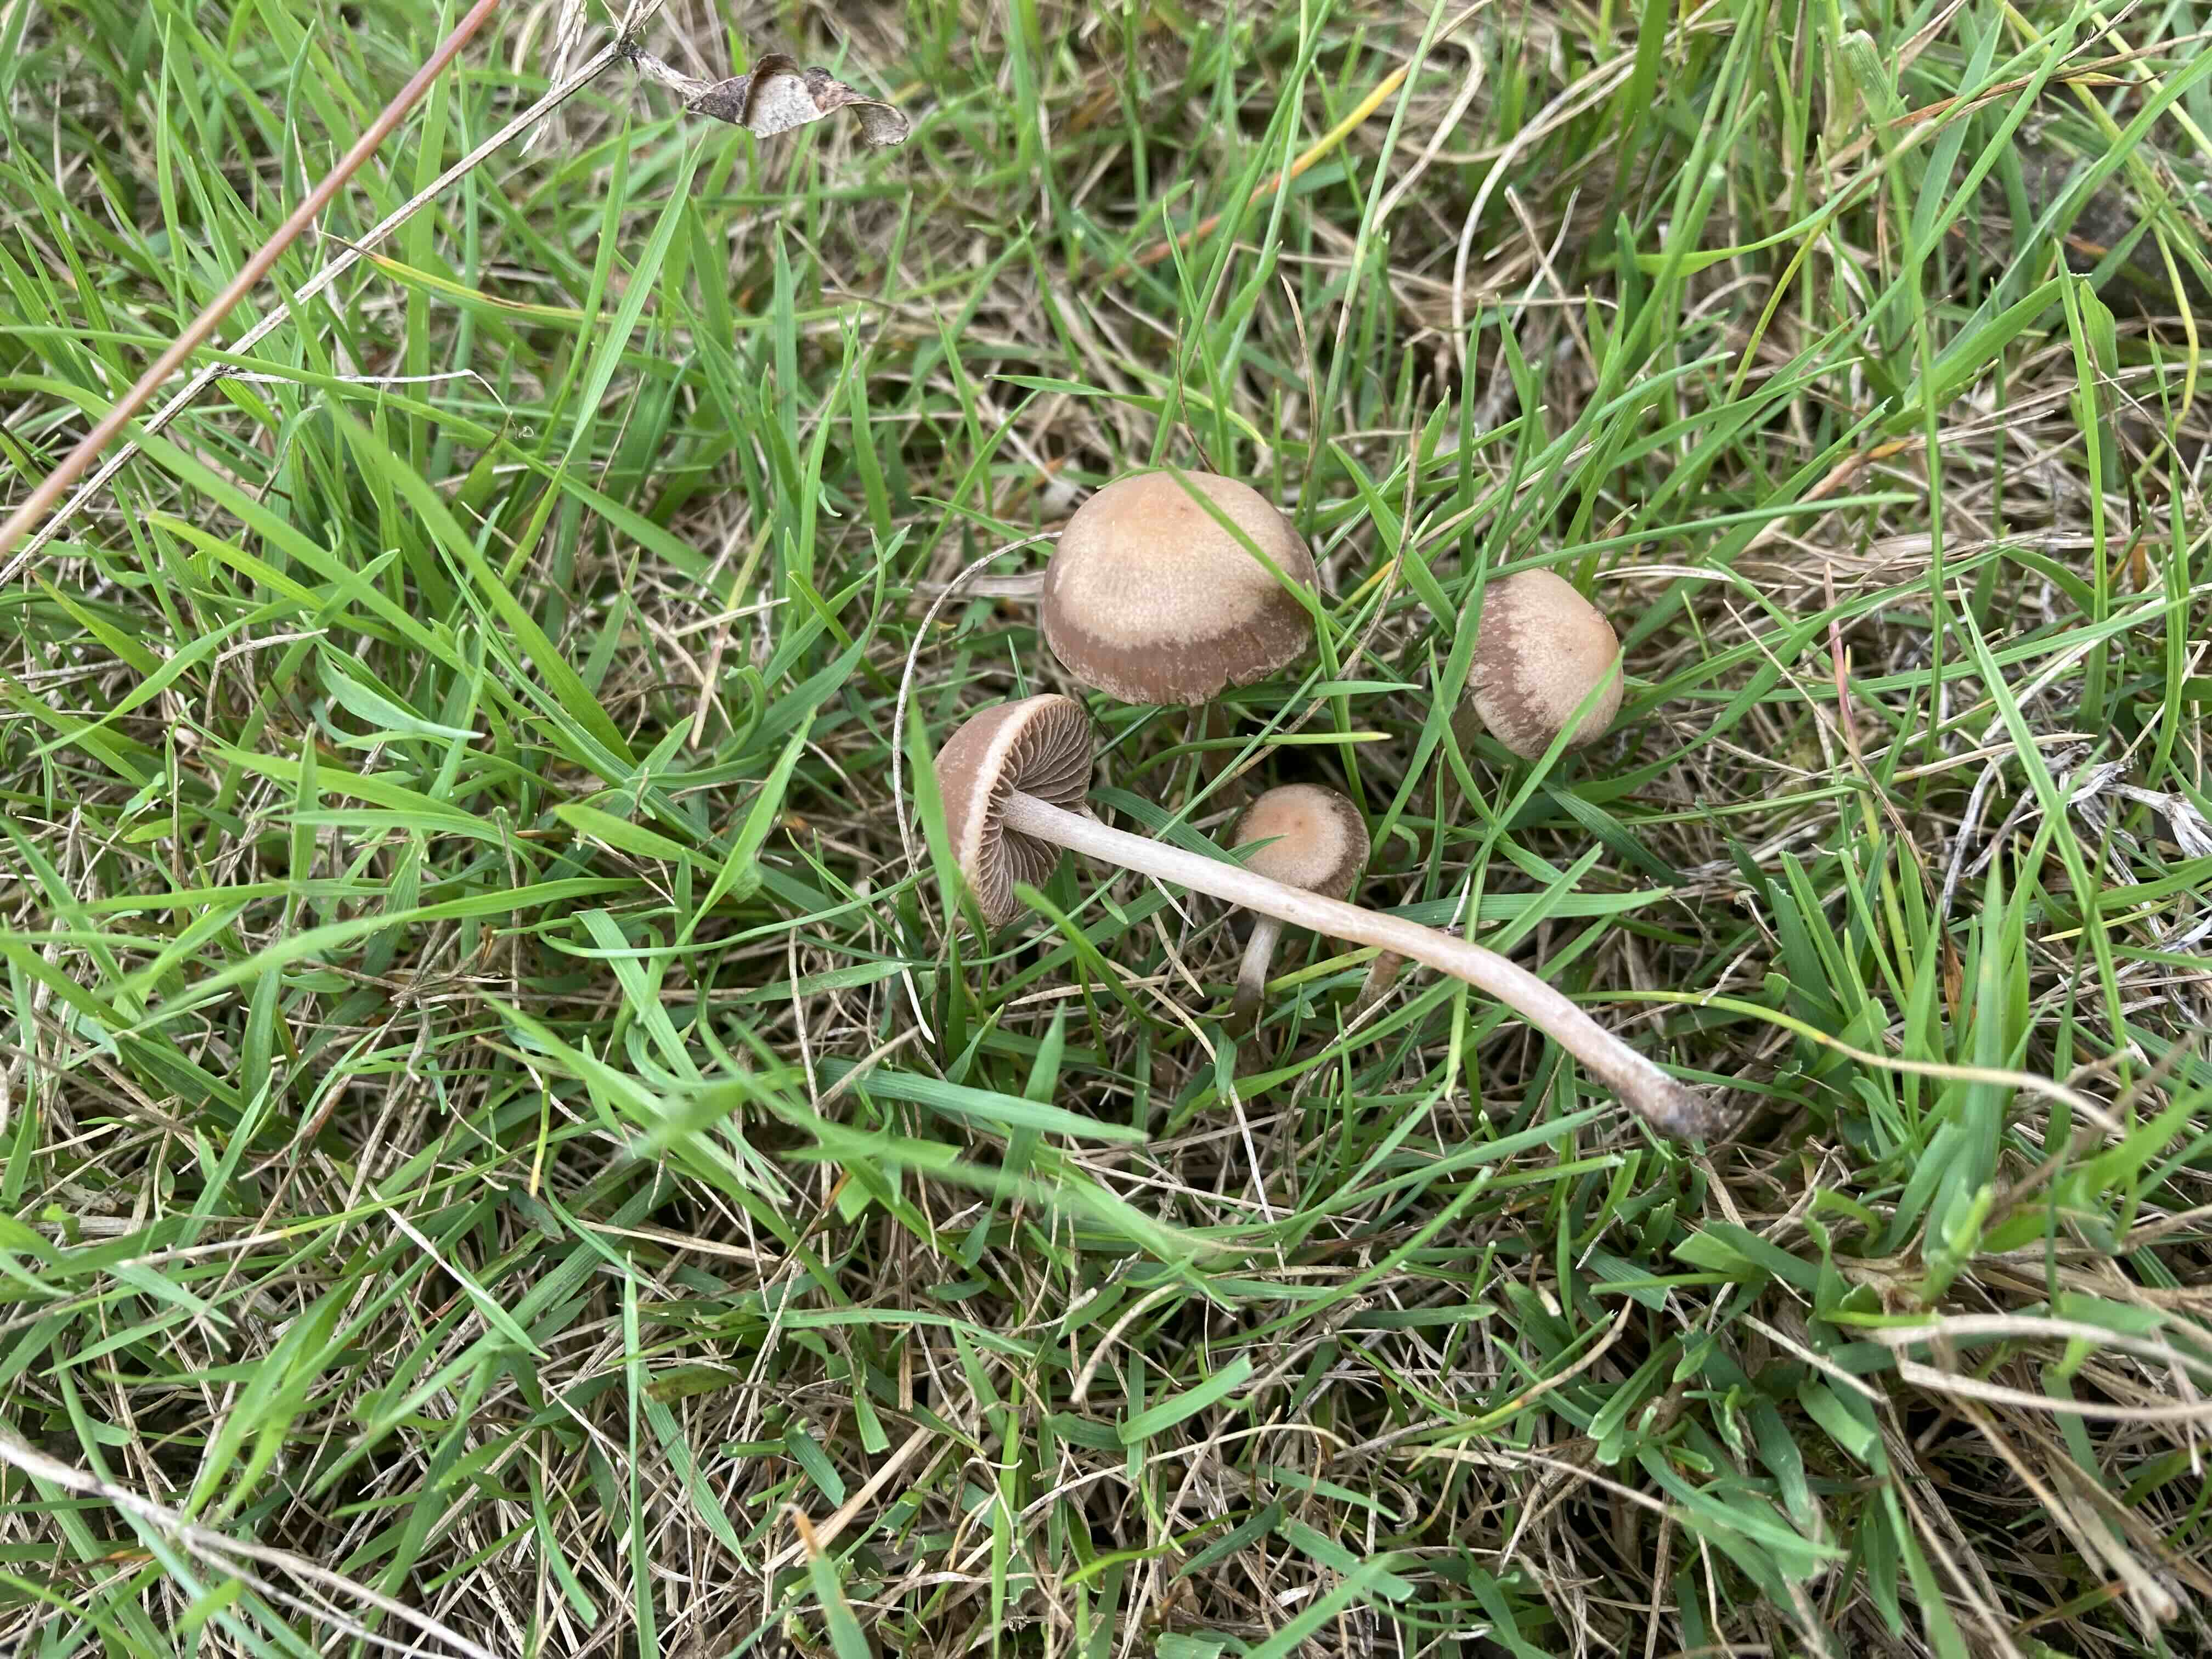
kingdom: Fungi
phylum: Basidiomycota
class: Agaricomycetes
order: Agaricales
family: Bolbitiaceae
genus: Panaeolina
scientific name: Panaeolina foenisecii
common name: høslætsvamp
